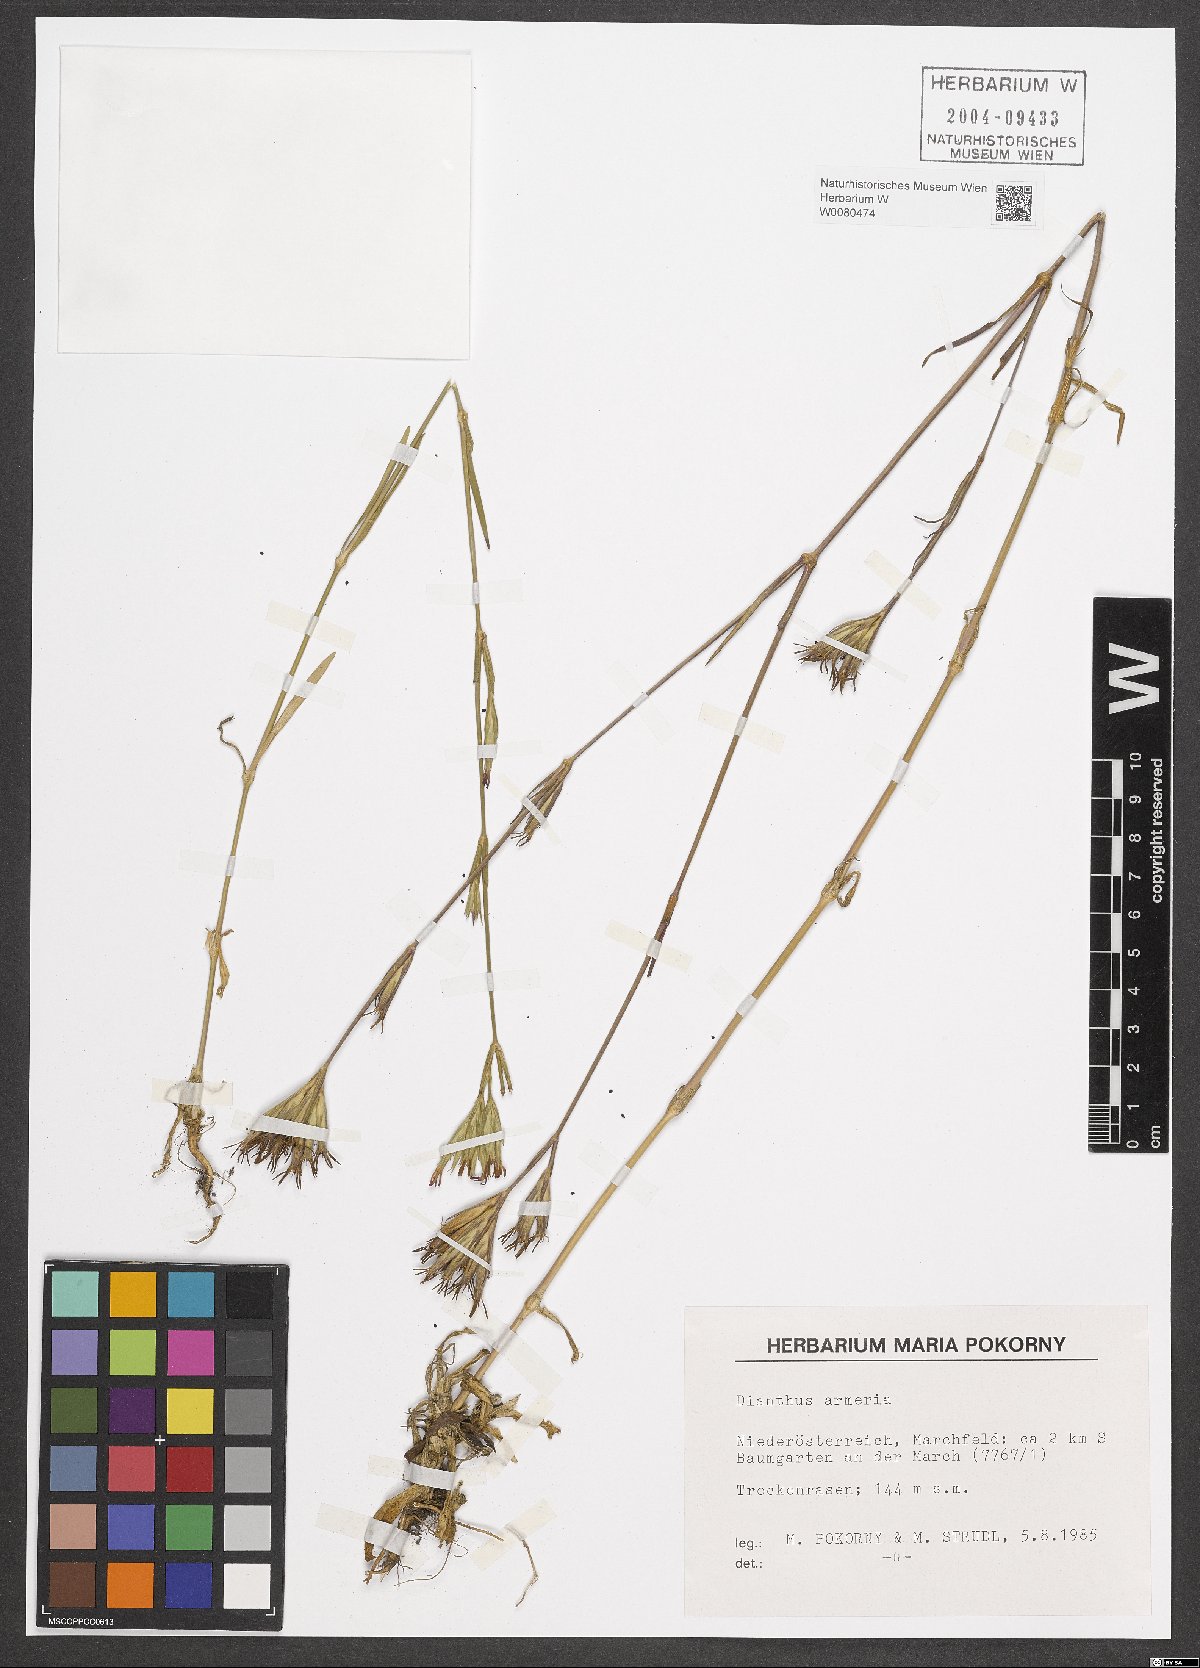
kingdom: Plantae
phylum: Tracheophyta
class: Magnoliopsida
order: Caryophyllales
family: Caryophyllaceae
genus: Dianthus
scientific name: Dianthus armeria
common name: Deptford pink
